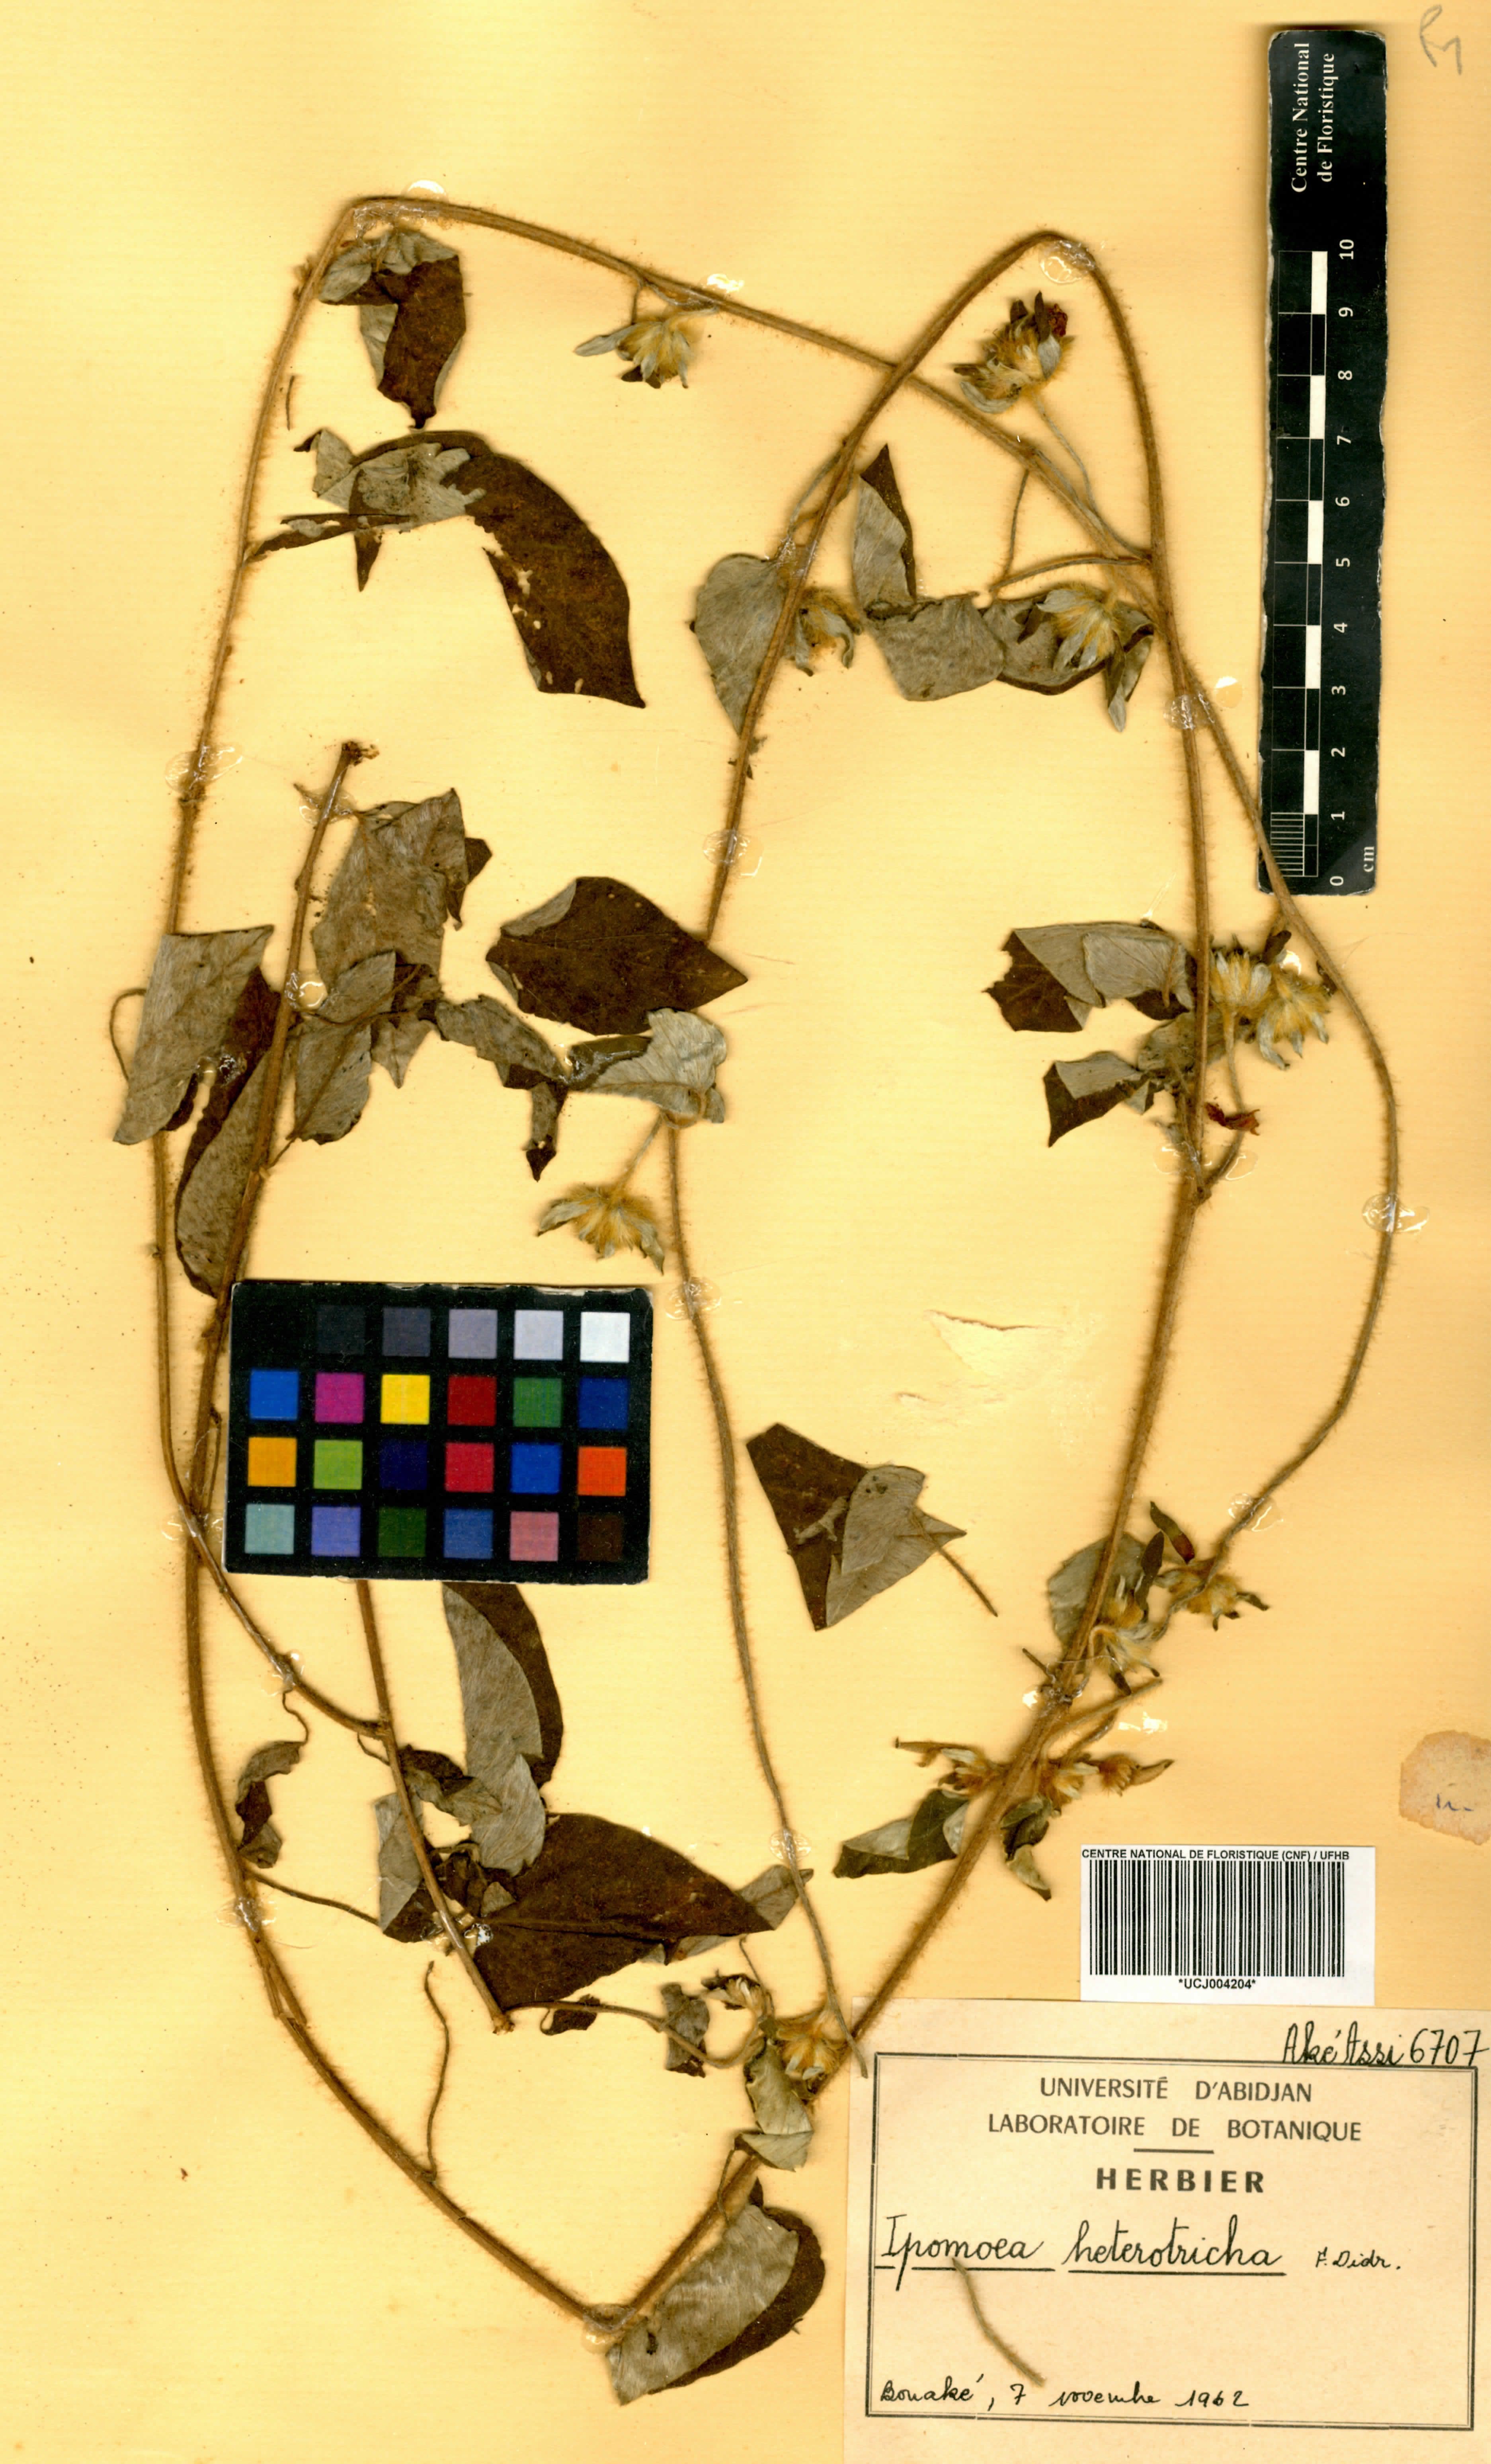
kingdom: Plantae
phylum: Tracheophyta
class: Magnoliopsida
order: Solanales
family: Convolvulaceae
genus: Ipomoea
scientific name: Ipomoea heterotricha
